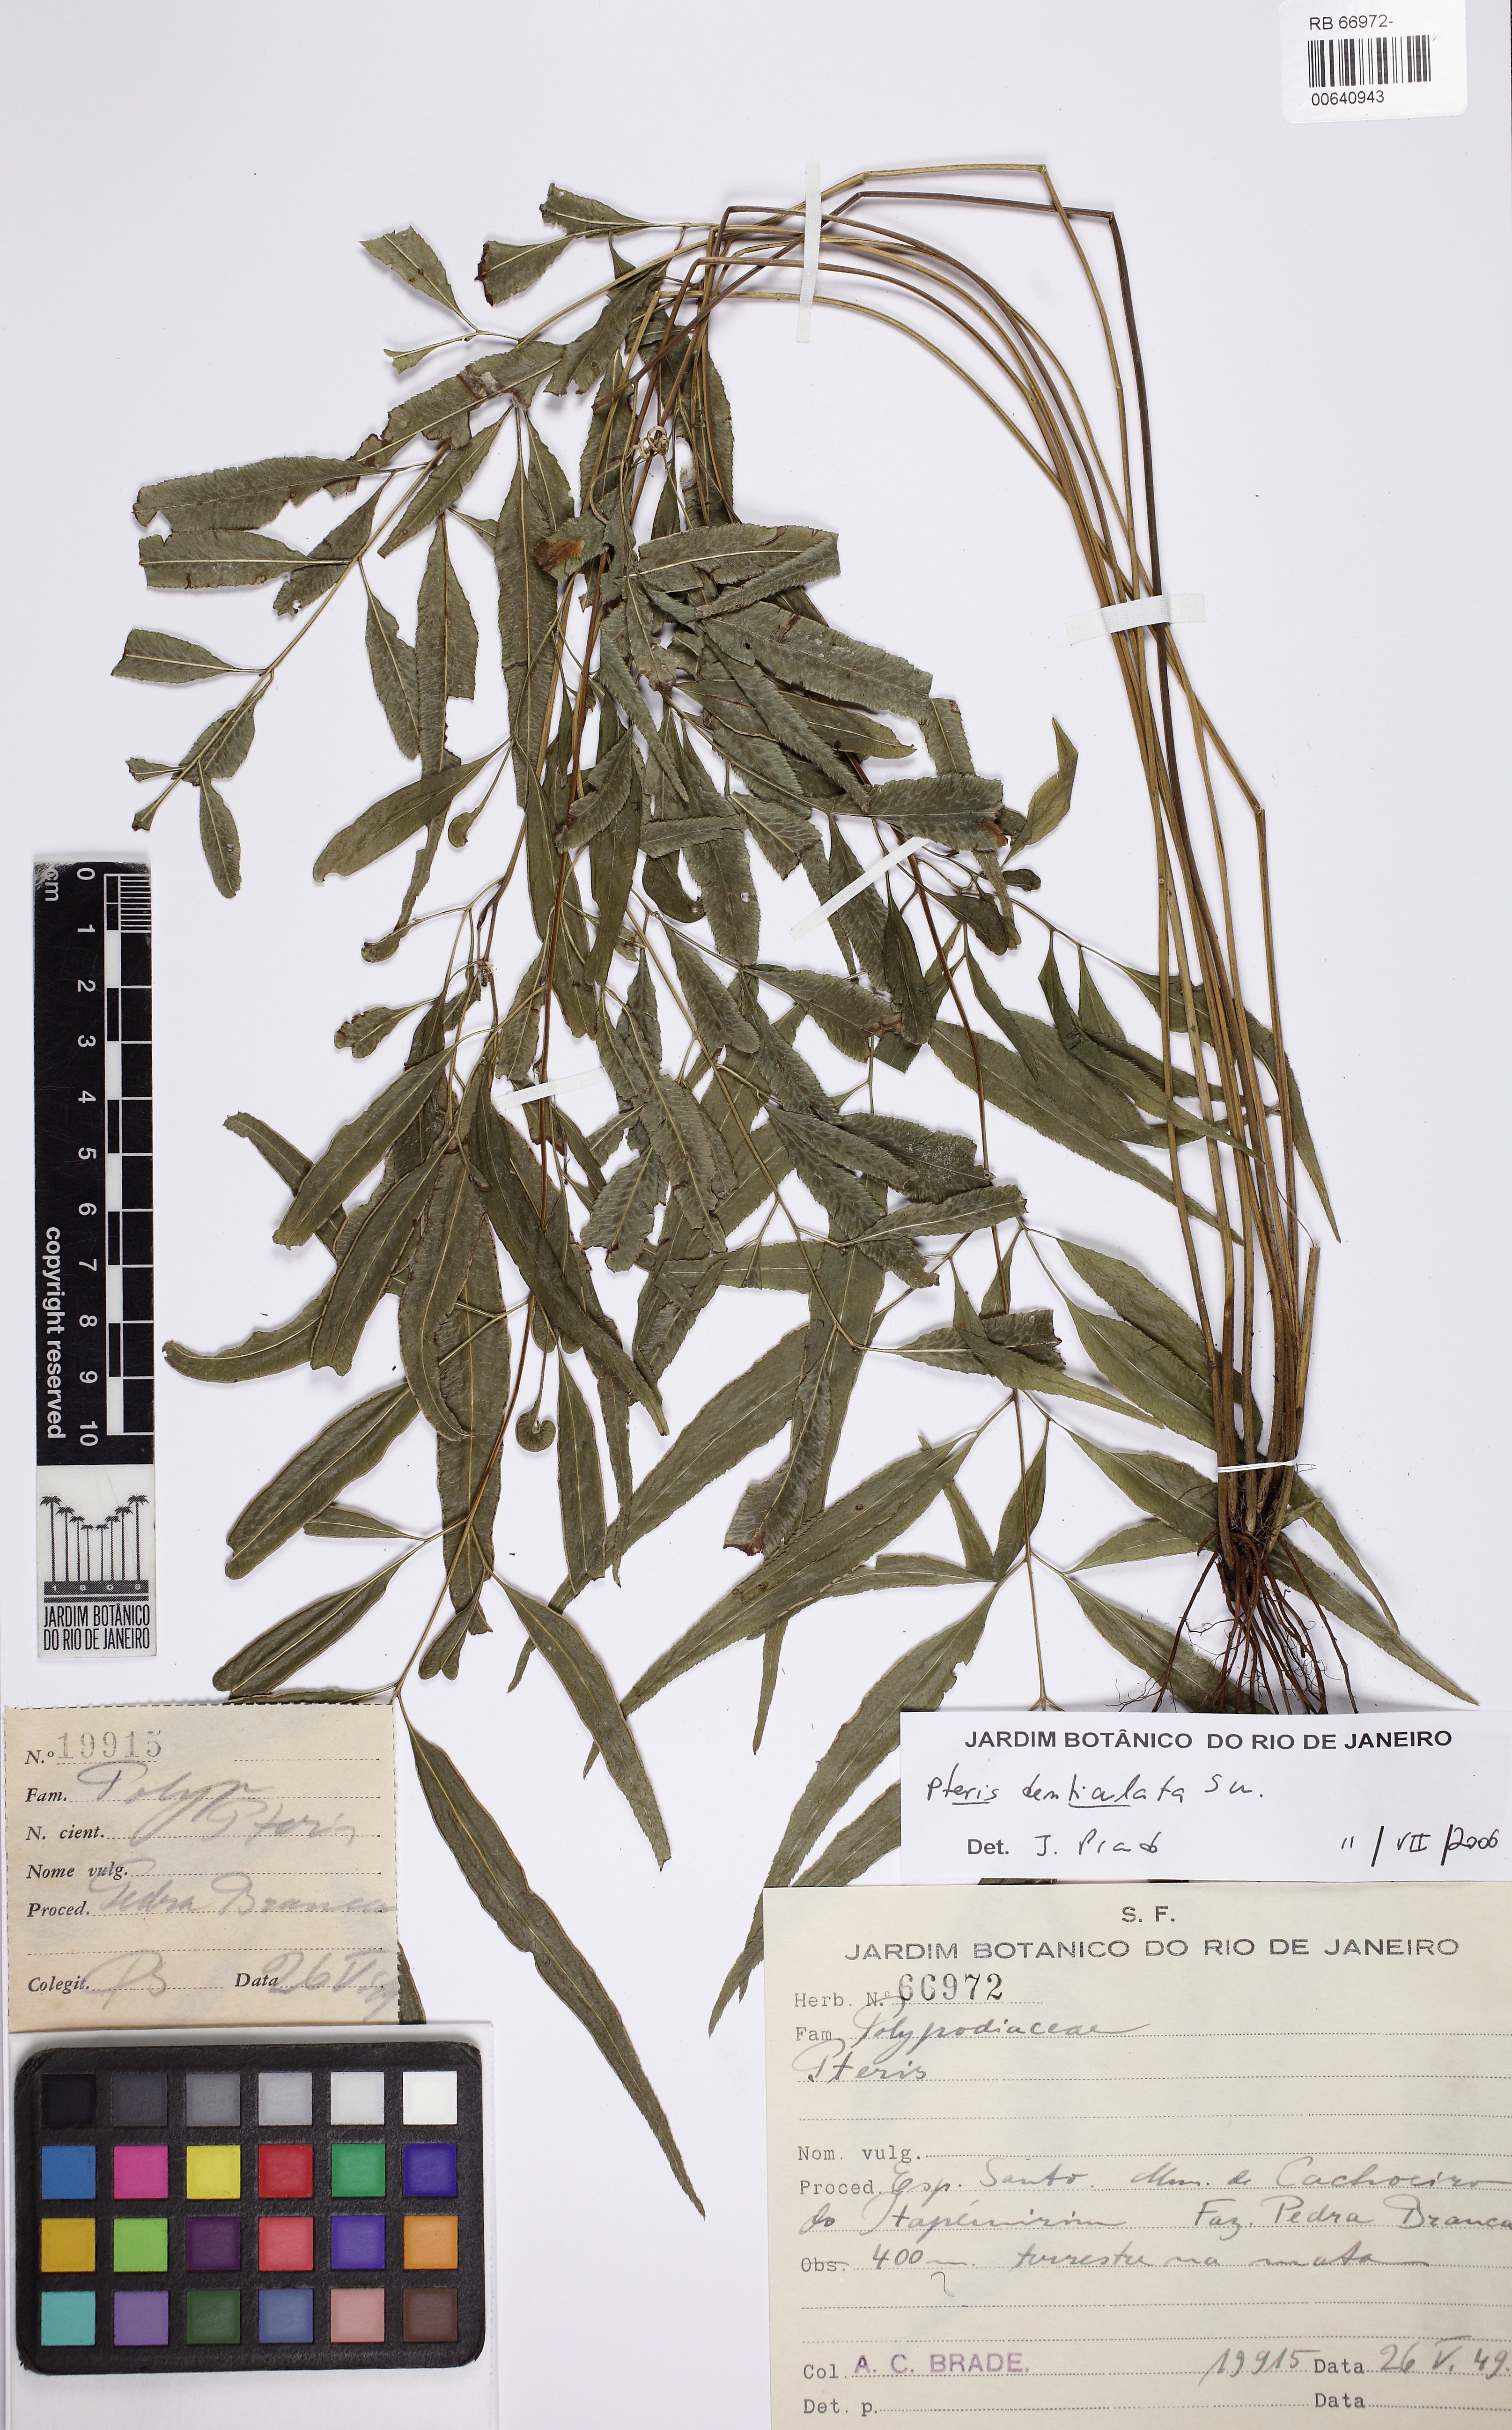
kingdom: Plantae
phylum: Tracheophyta
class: Polypodiopsida
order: Polypodiales
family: Pteridaceae
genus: Pteris
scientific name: Pteris denticulata
